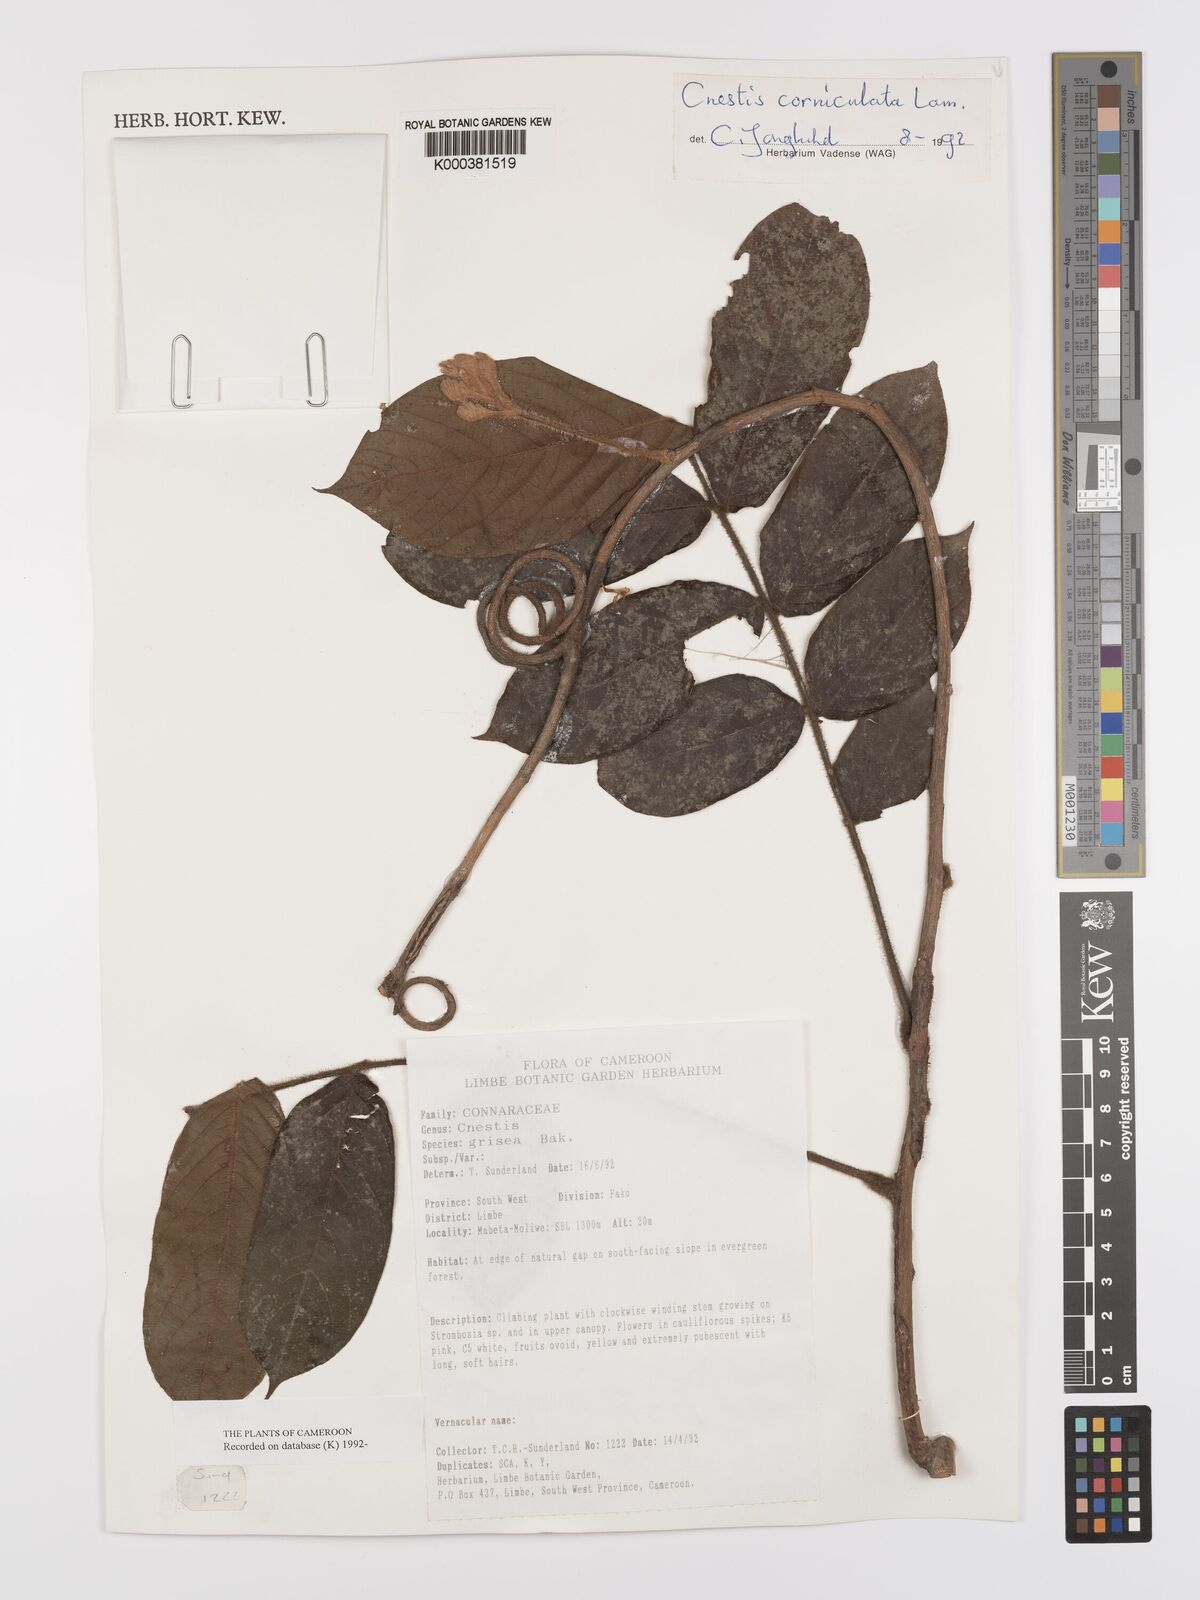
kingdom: Plantae
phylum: Tracheophyta
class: Magnoliopsida
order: Oxalidales
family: Connaraceae
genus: Cnestis
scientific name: Cnestis corniculata
